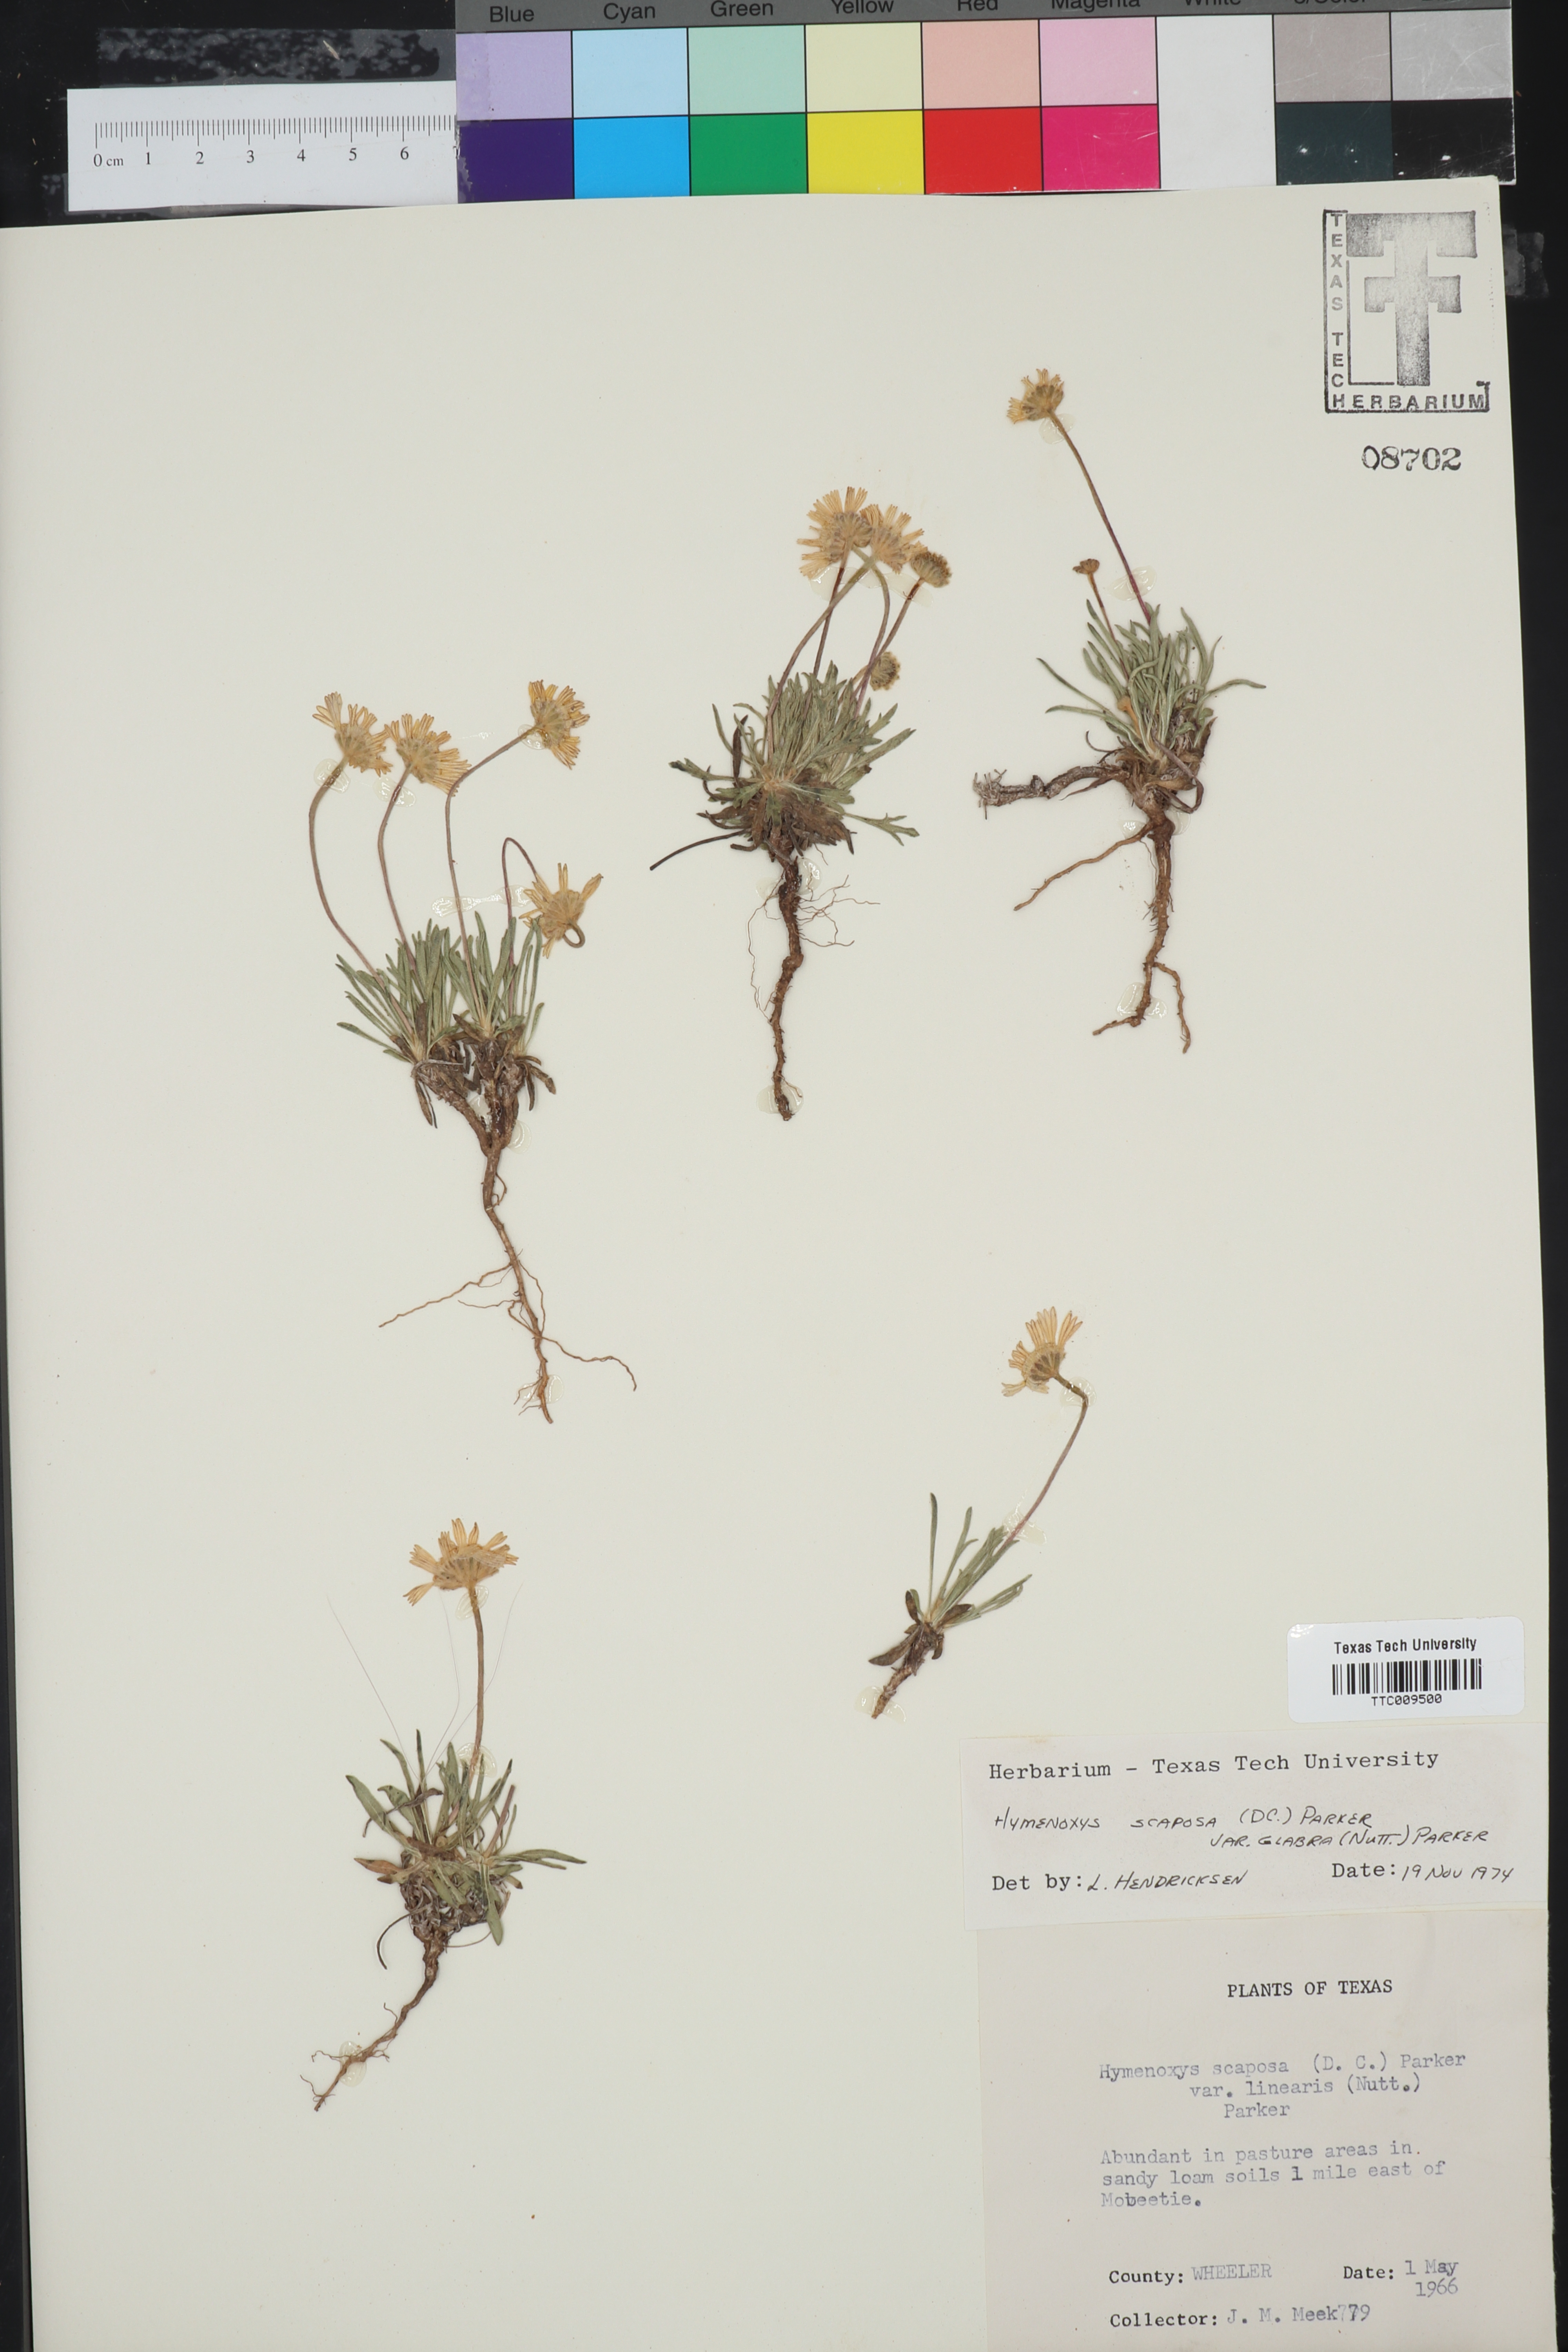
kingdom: Plantae
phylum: Tracheophyta
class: Magnoliopsida
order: Asterales
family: Asteraceae
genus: Tetraneuris
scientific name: Tetraneuris scaposa
